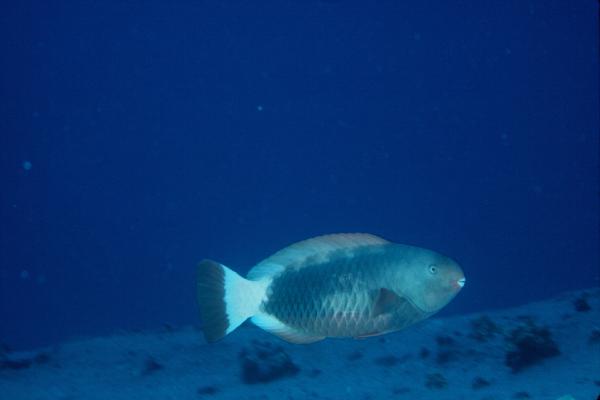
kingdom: Animalia
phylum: Chordata
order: Perciformes
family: Scaridae
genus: Chlorurus
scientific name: Chlorurus perspicillatus
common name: Spectacled parrotfish
